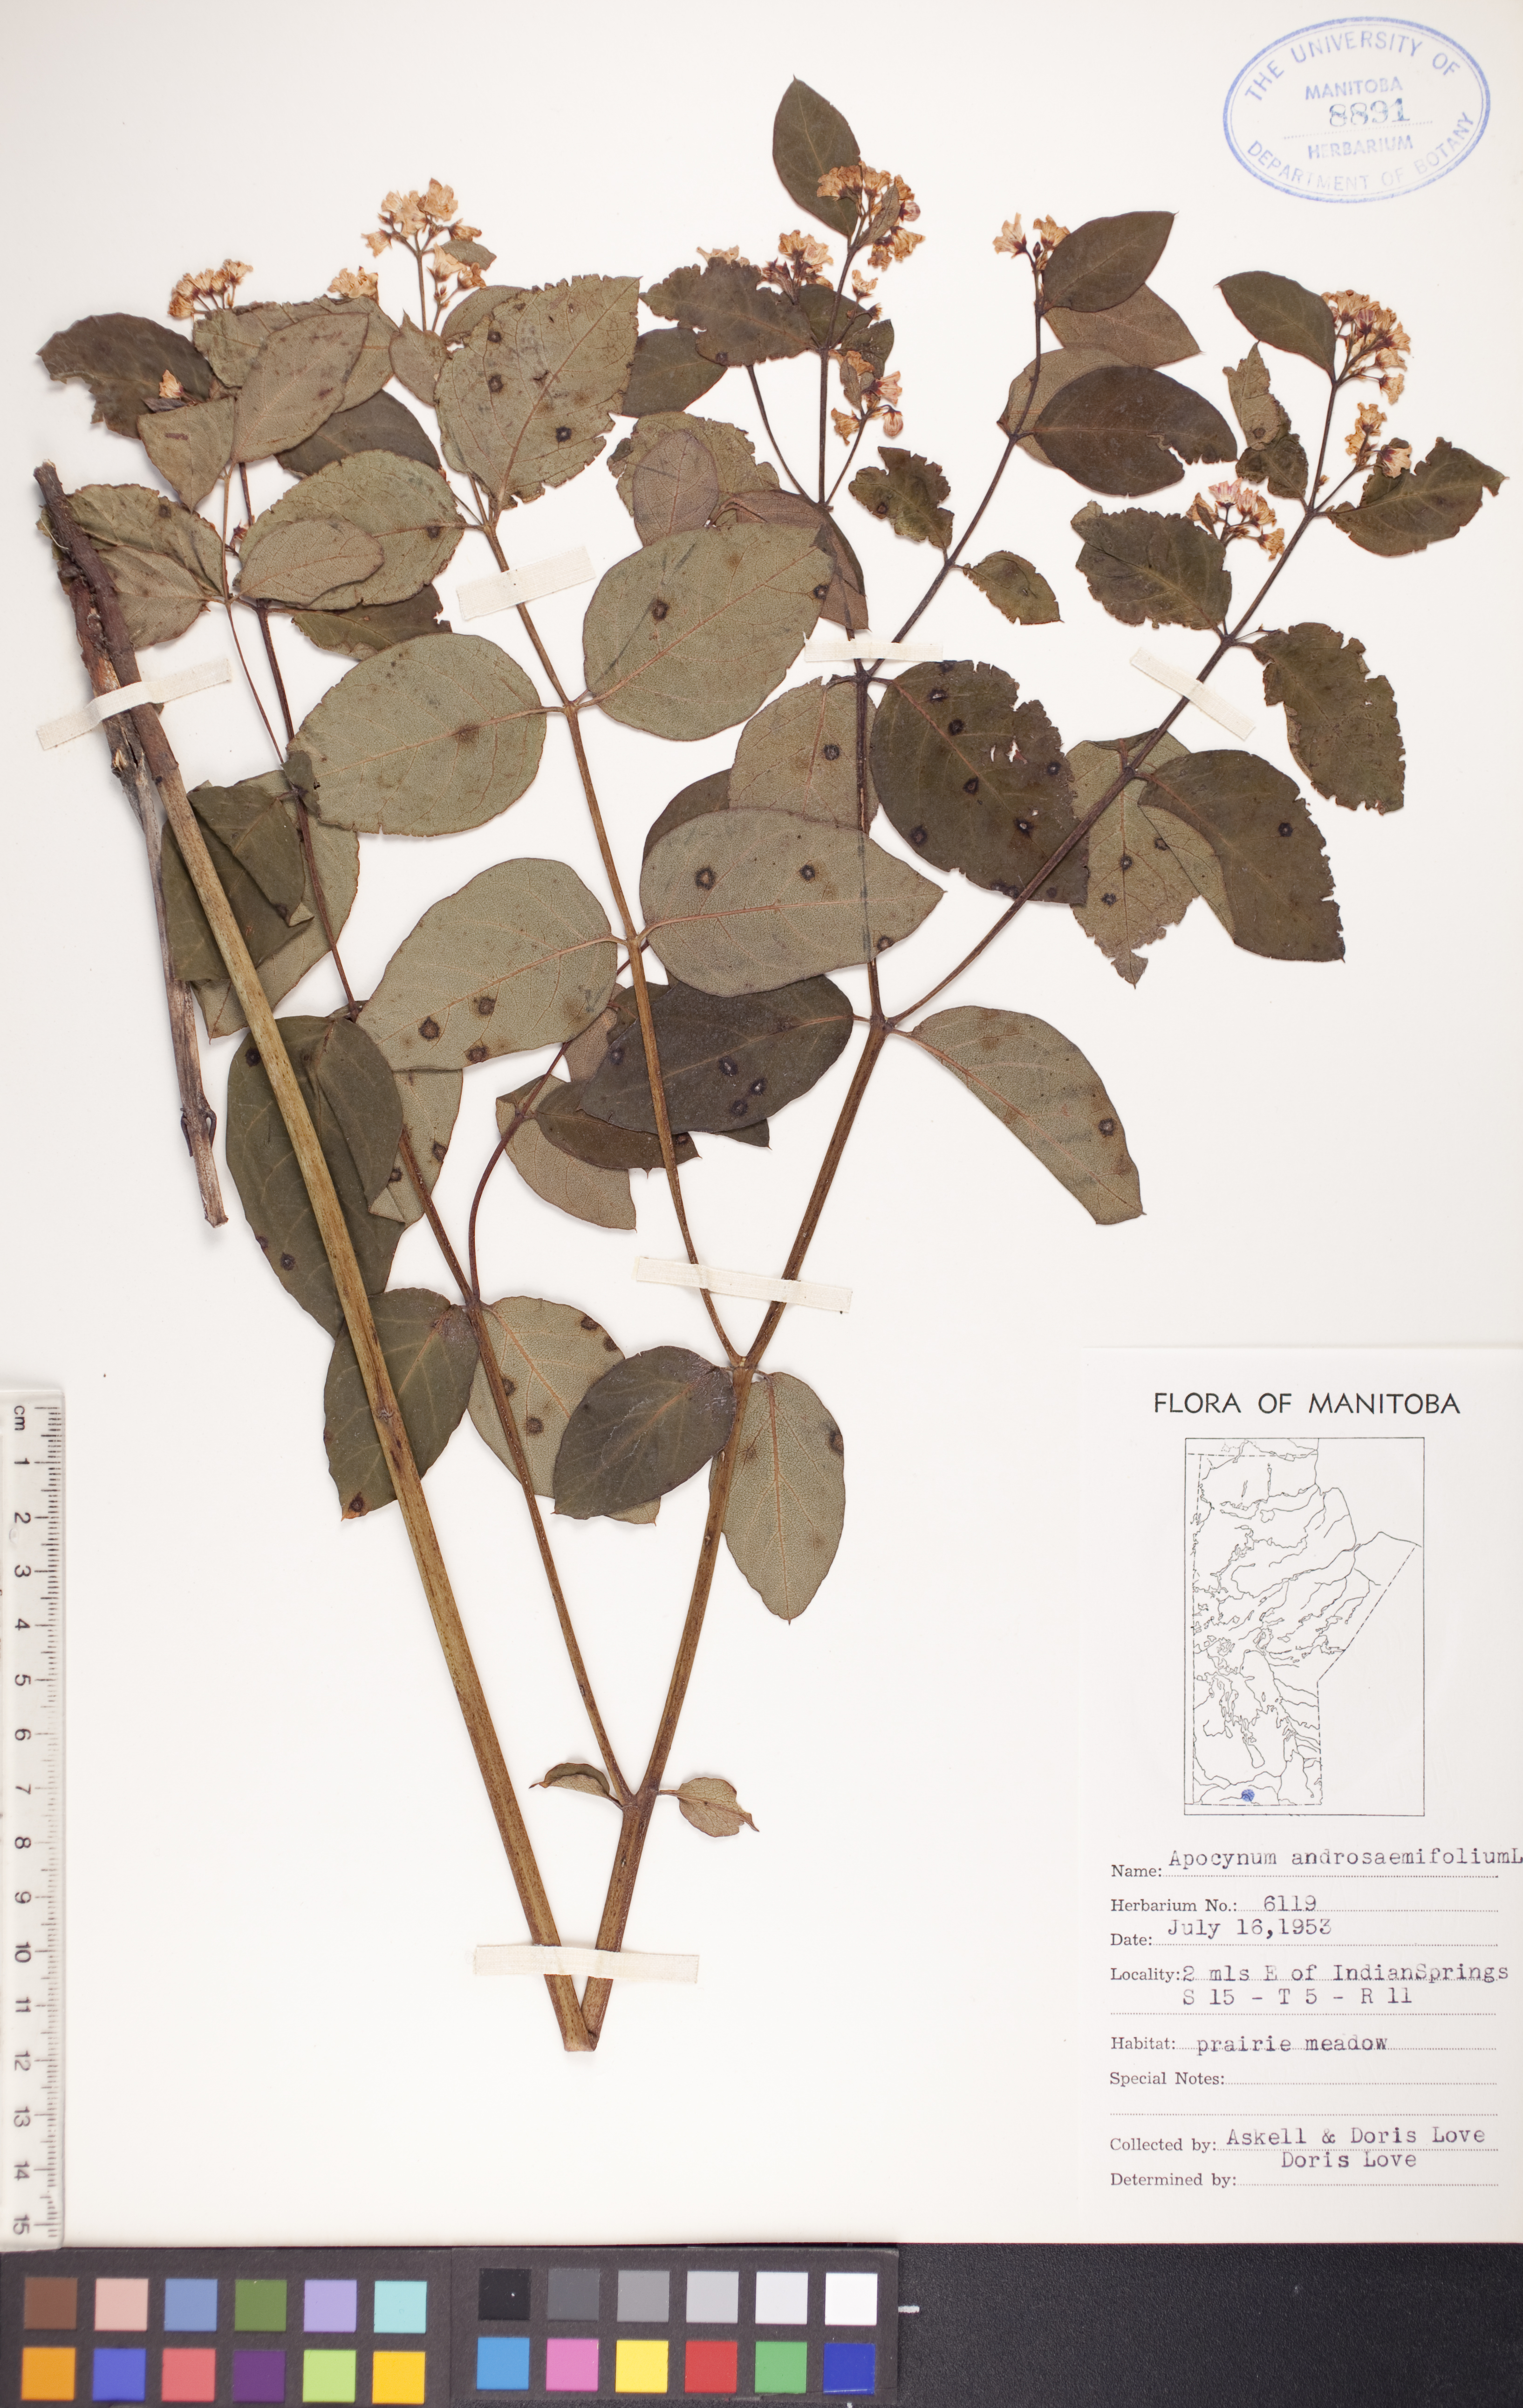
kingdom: Plantae
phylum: Tracheophyta
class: Magnoliopsida
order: Gentianales
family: Apocynaceae
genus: Apocynum
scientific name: Apocynum androsaemifolium
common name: Spreading dogbane
